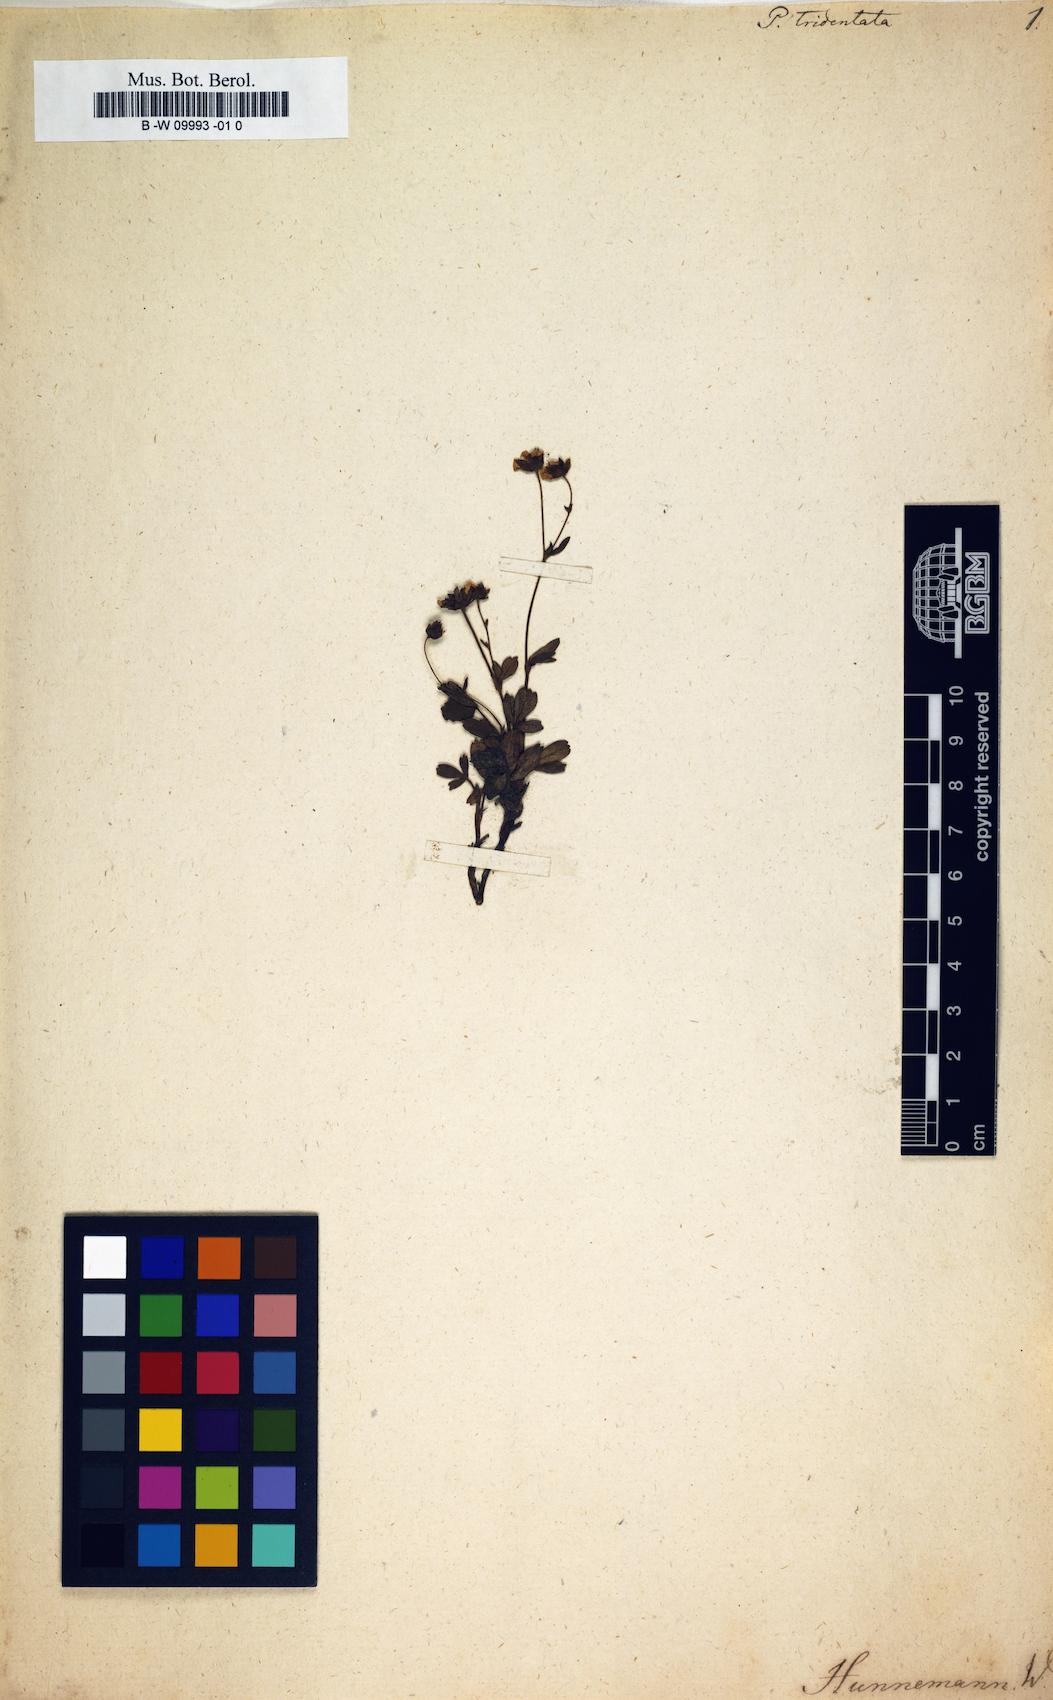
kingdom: Plantae
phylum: Tracheophyta
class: Magnoliopsida
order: Rosales
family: Rosaceae
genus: Sibbaldia
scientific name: Sibbaldia tridentata
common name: Three-toothed cinquefoil
